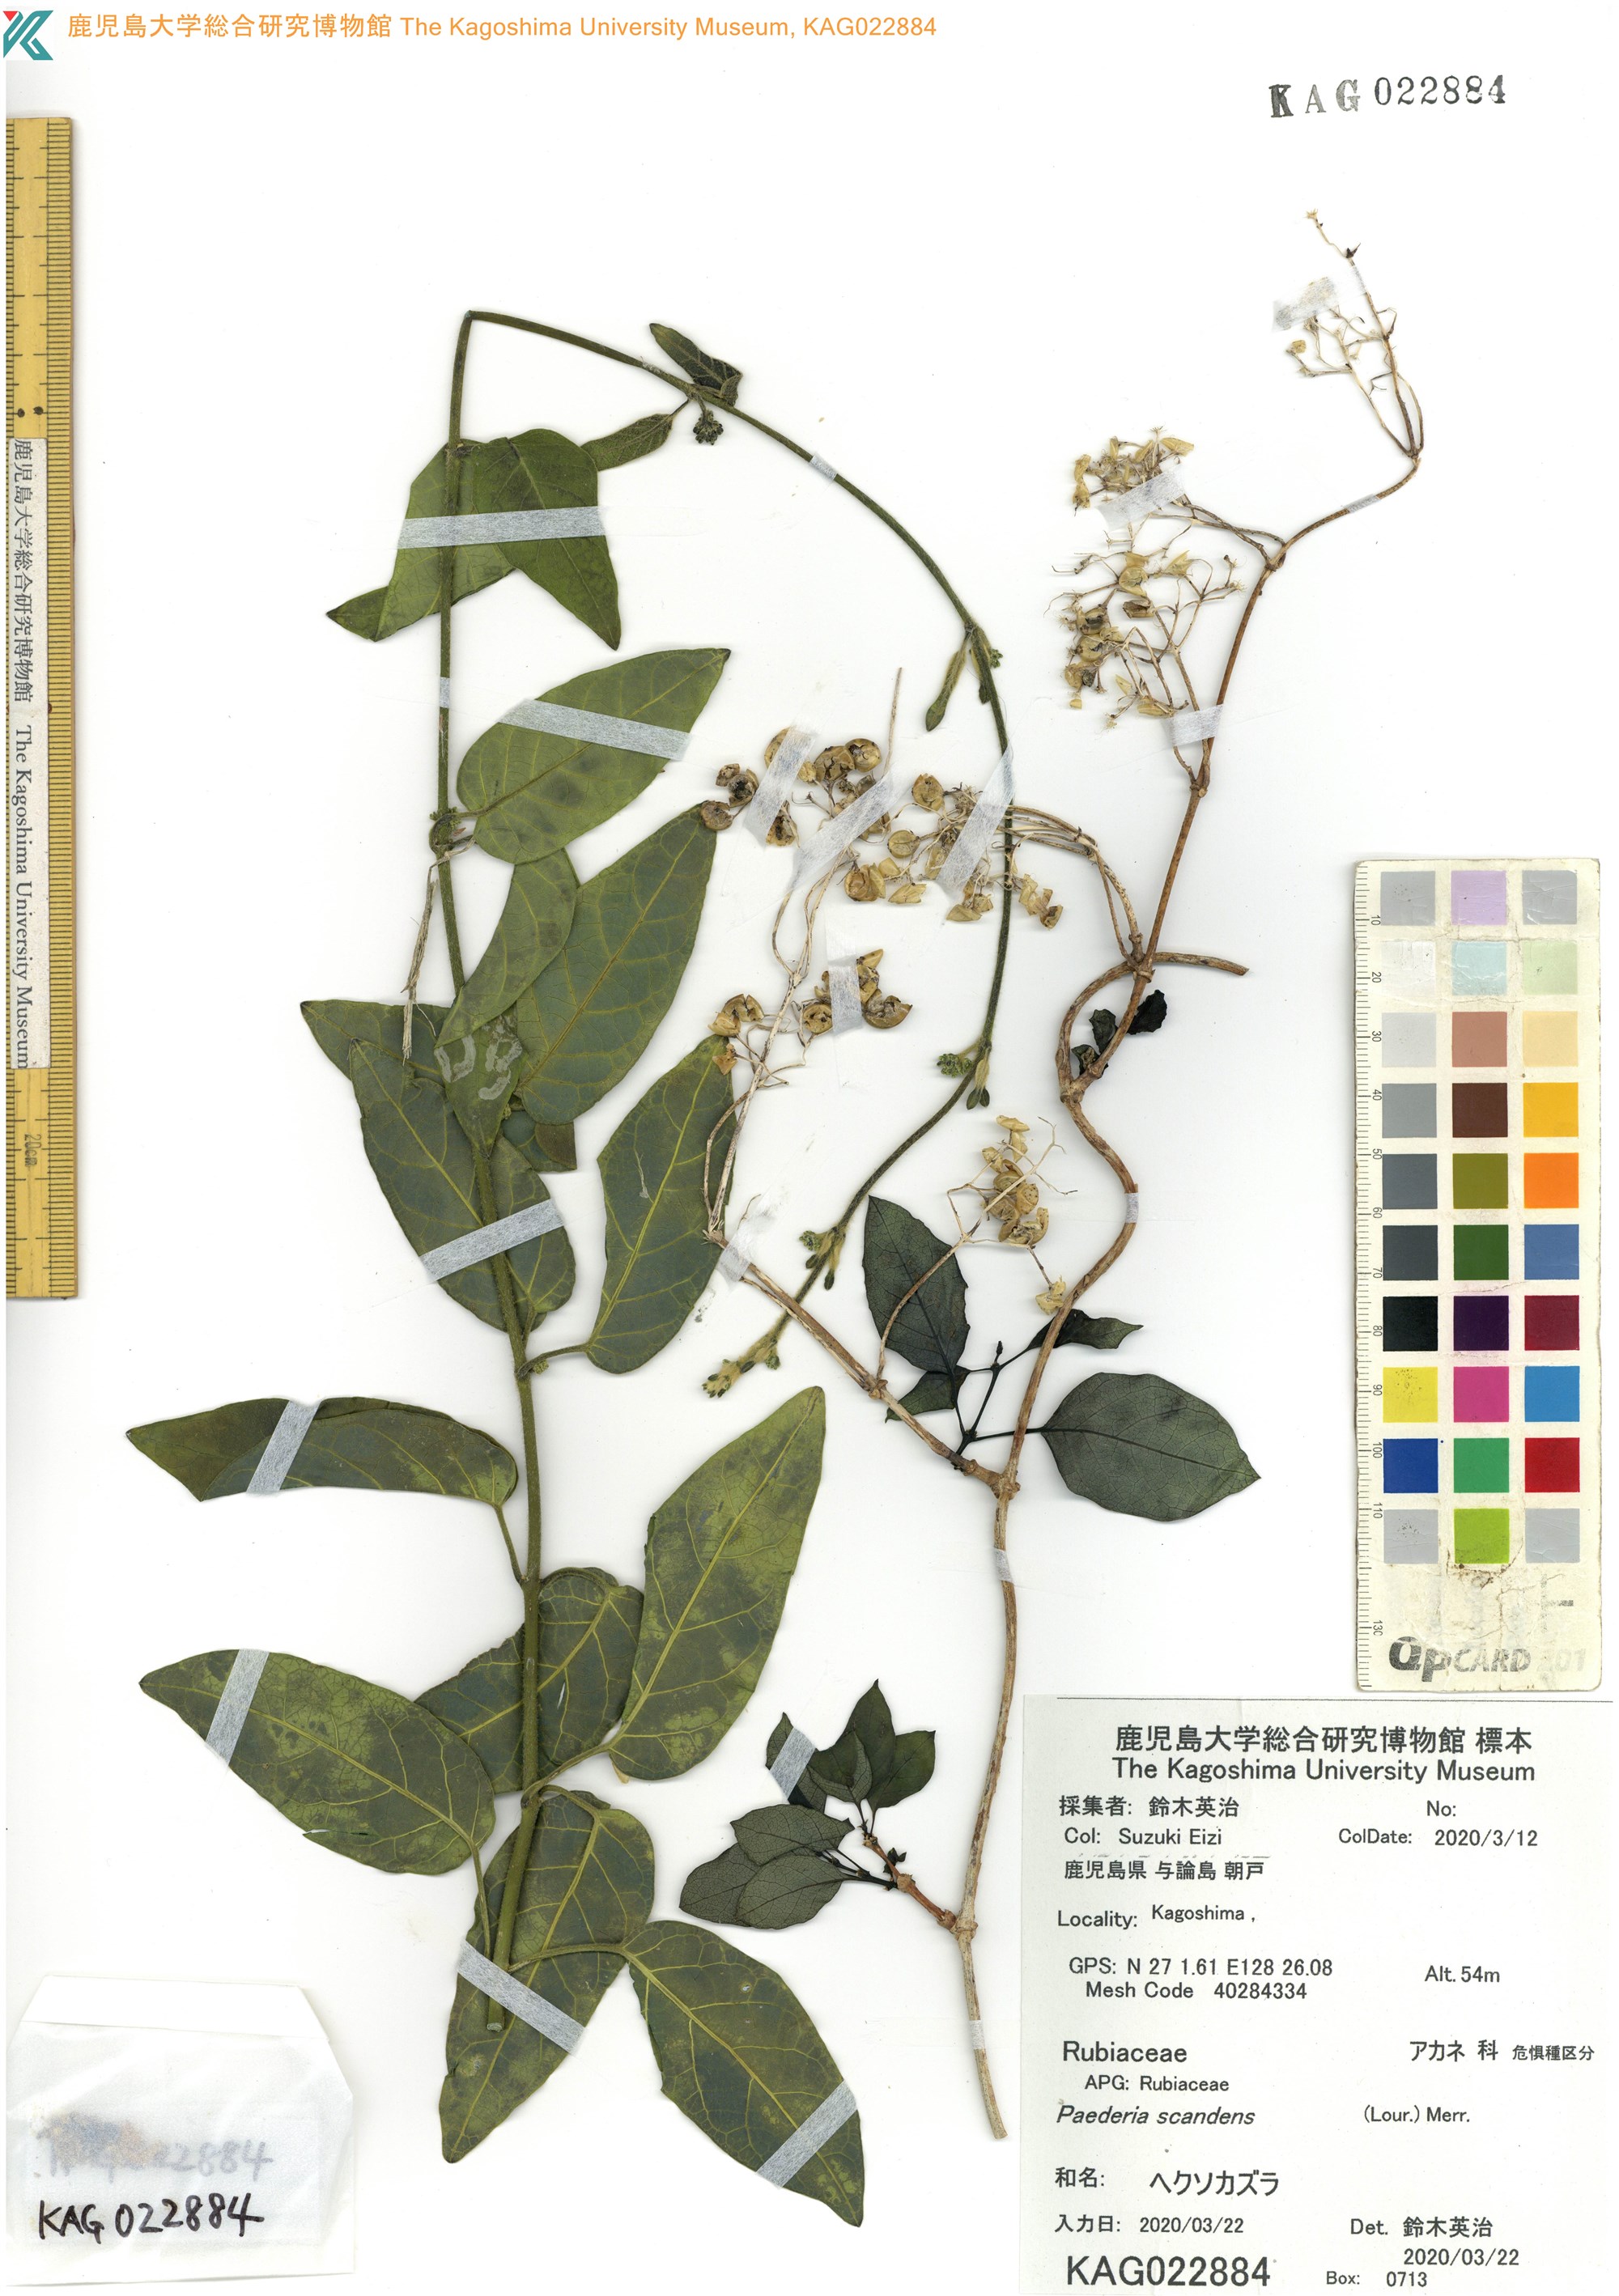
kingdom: Plantae
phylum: Tracheophyta
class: Magnoliopsida
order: Gentianales
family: Rubiaceae
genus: Paederia
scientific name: Paederia foetida
